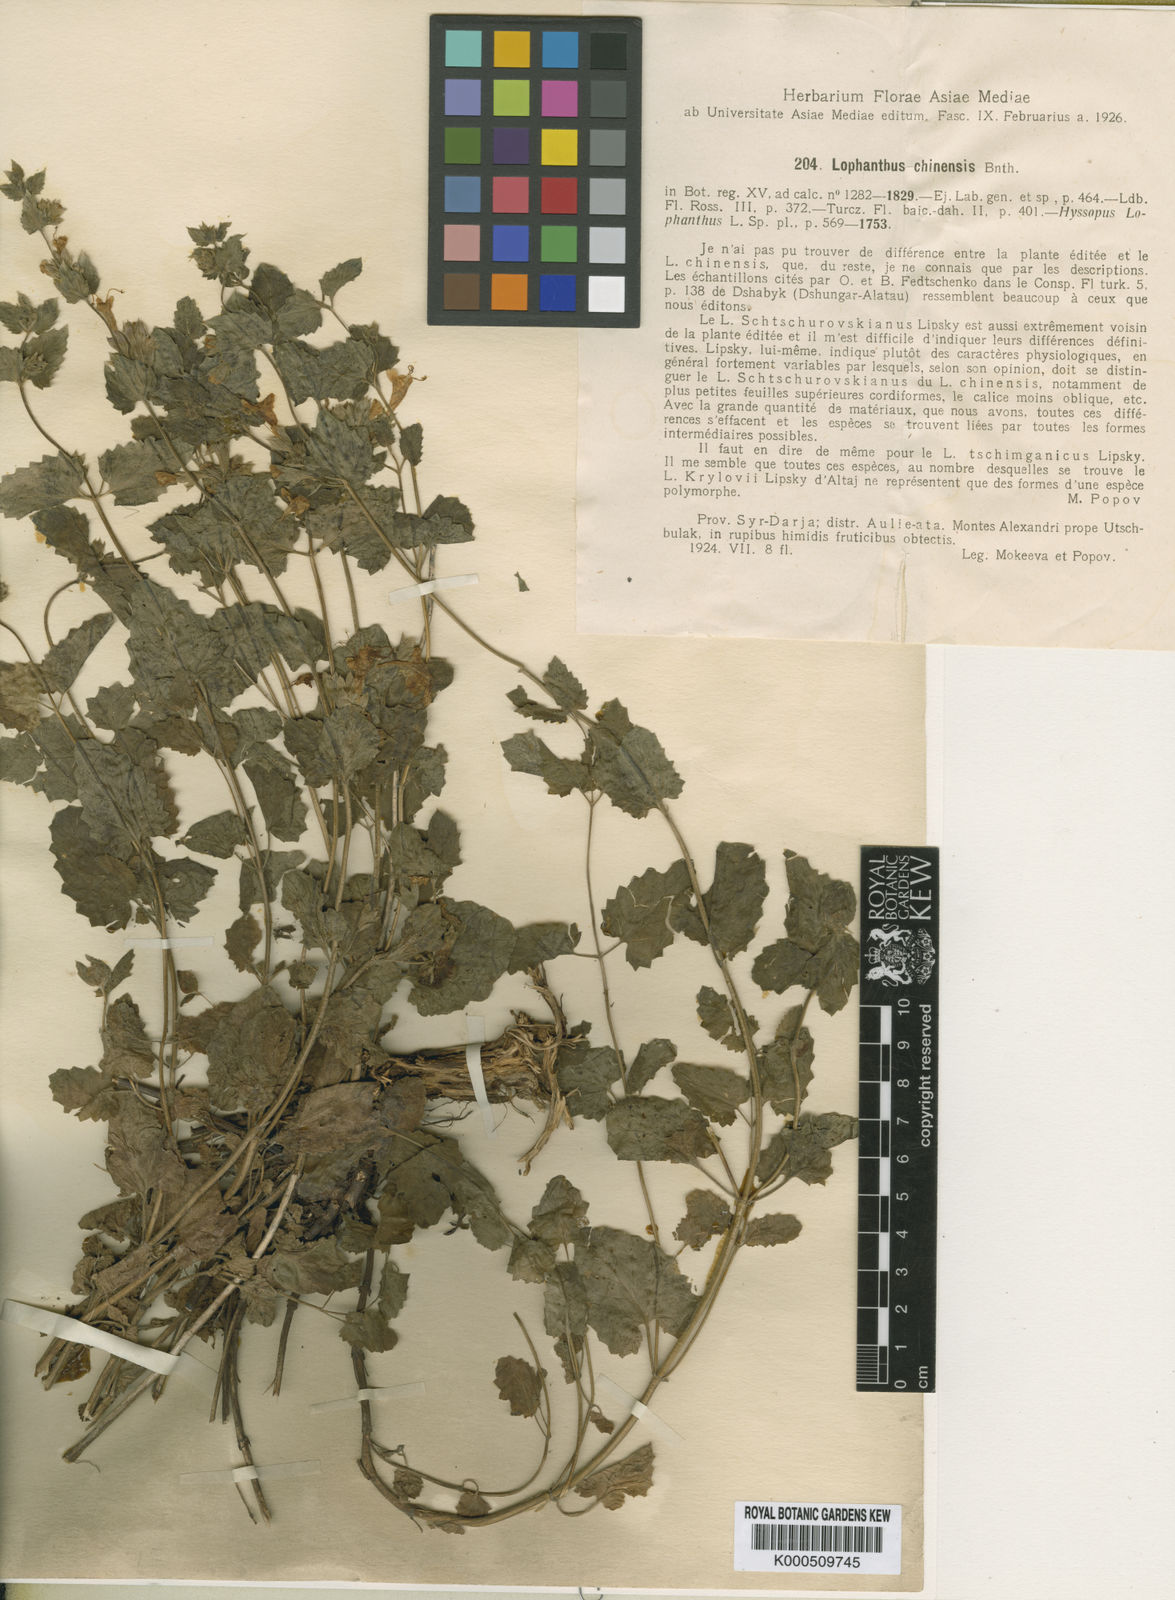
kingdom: Plantae
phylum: Tracheophyta
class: Magnoliopsida
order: Lamiales
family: Lamiaceae
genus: Nepeta
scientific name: Nepeta lophanthus
